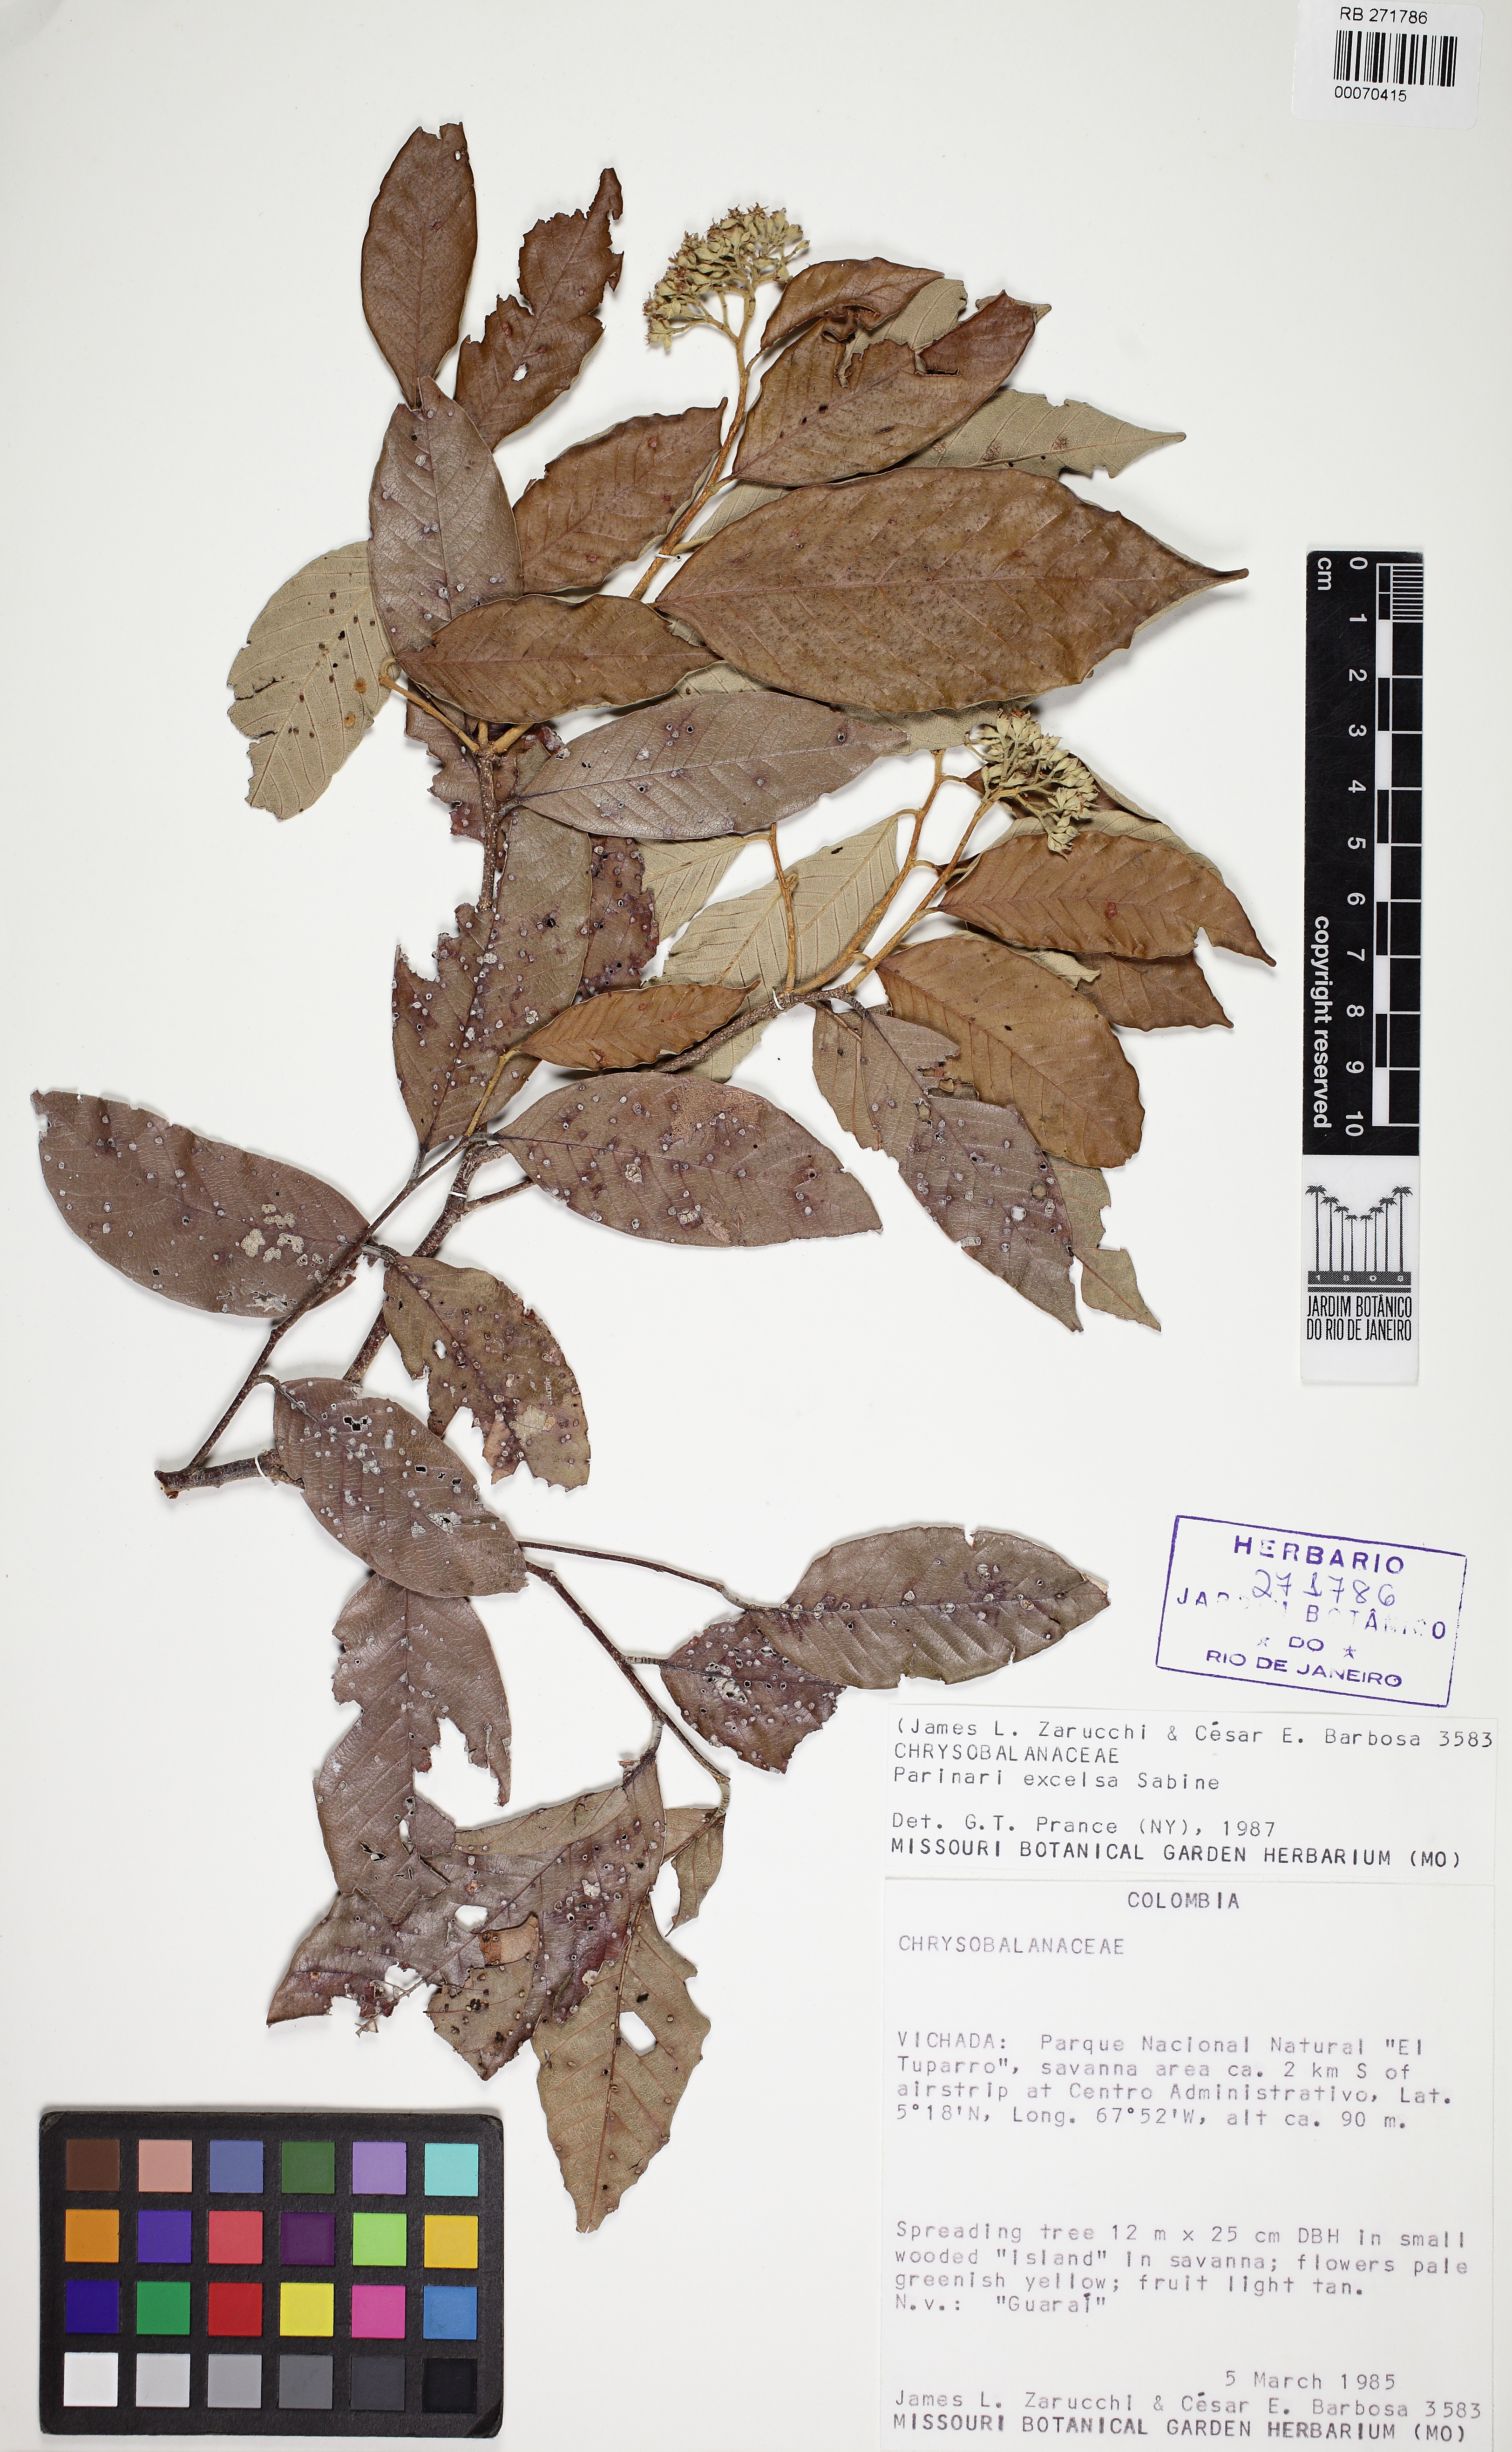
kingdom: Plantae
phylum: Tracheophyta
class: Magnoliopsida
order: Malpighiales
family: Chrysobalanaceae
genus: Parinari
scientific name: Parinari excelsa
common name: Guinea-plum
